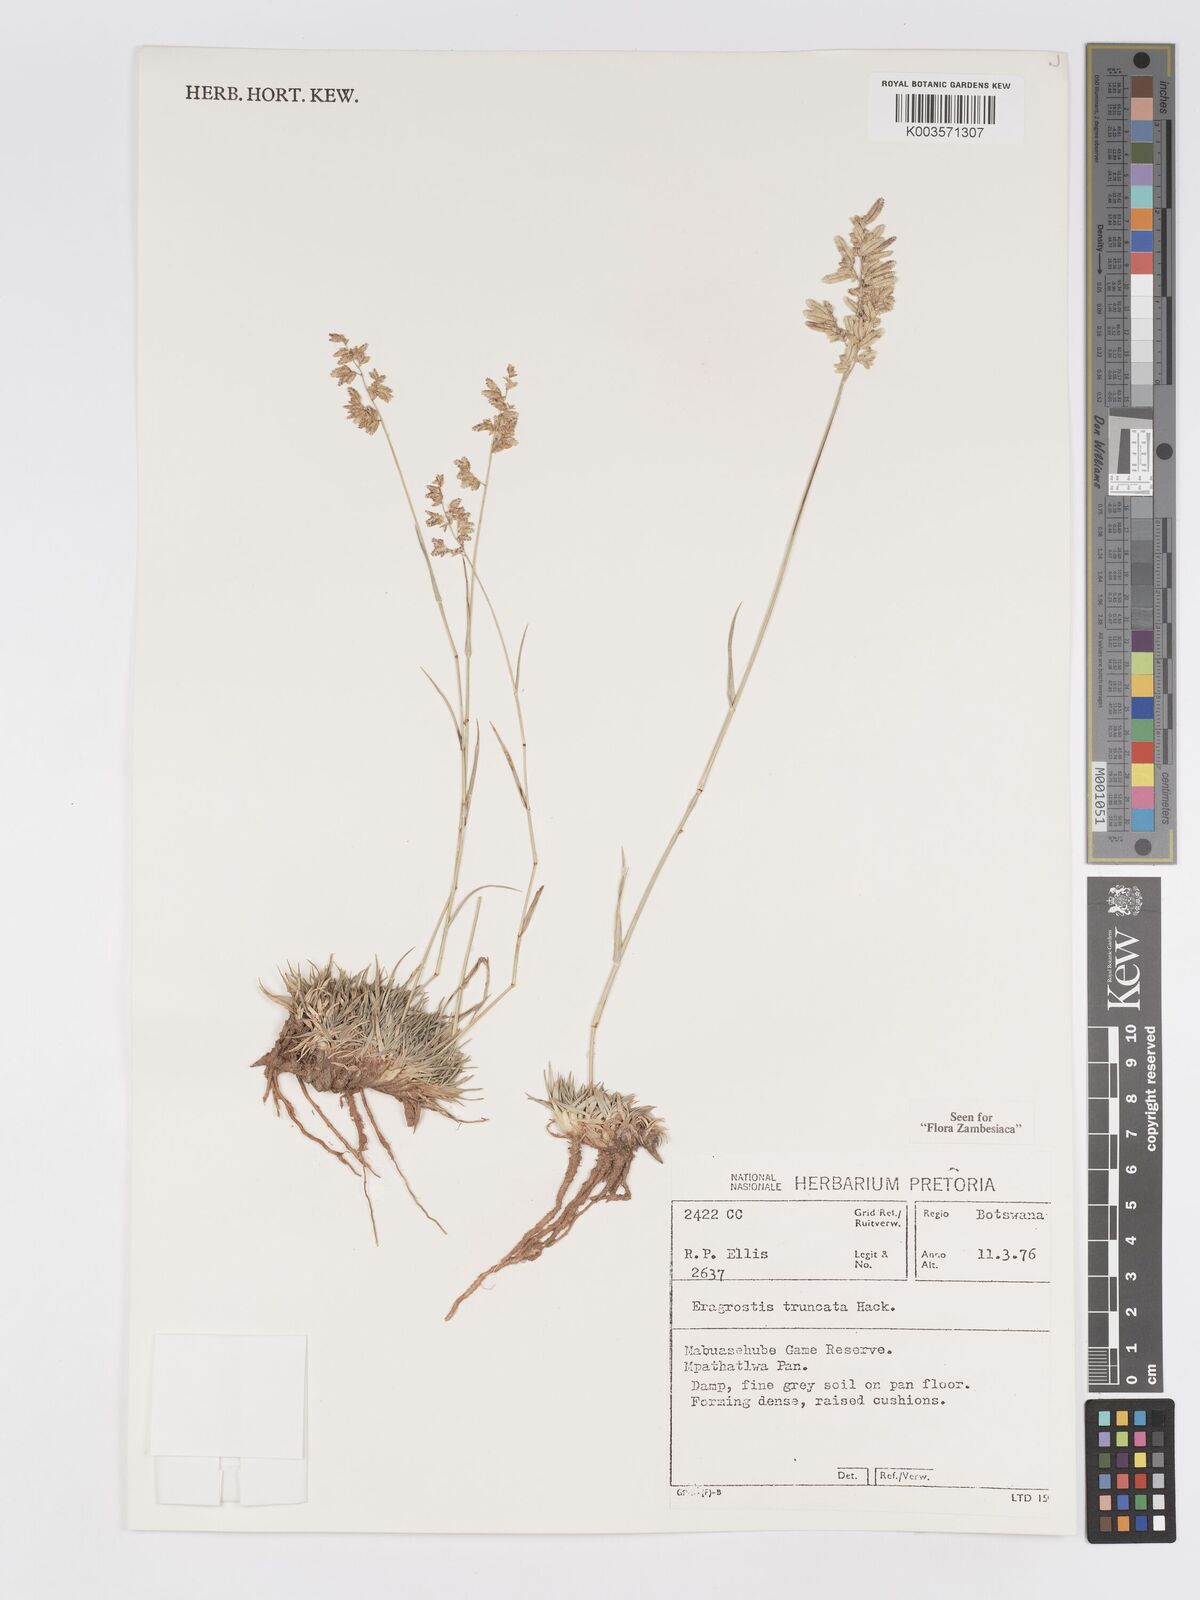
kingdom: Plantae
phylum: Tracheophyta
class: Liliopsida
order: Poales
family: Poaceae
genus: Eragrostis
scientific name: Eragrostis truncata
